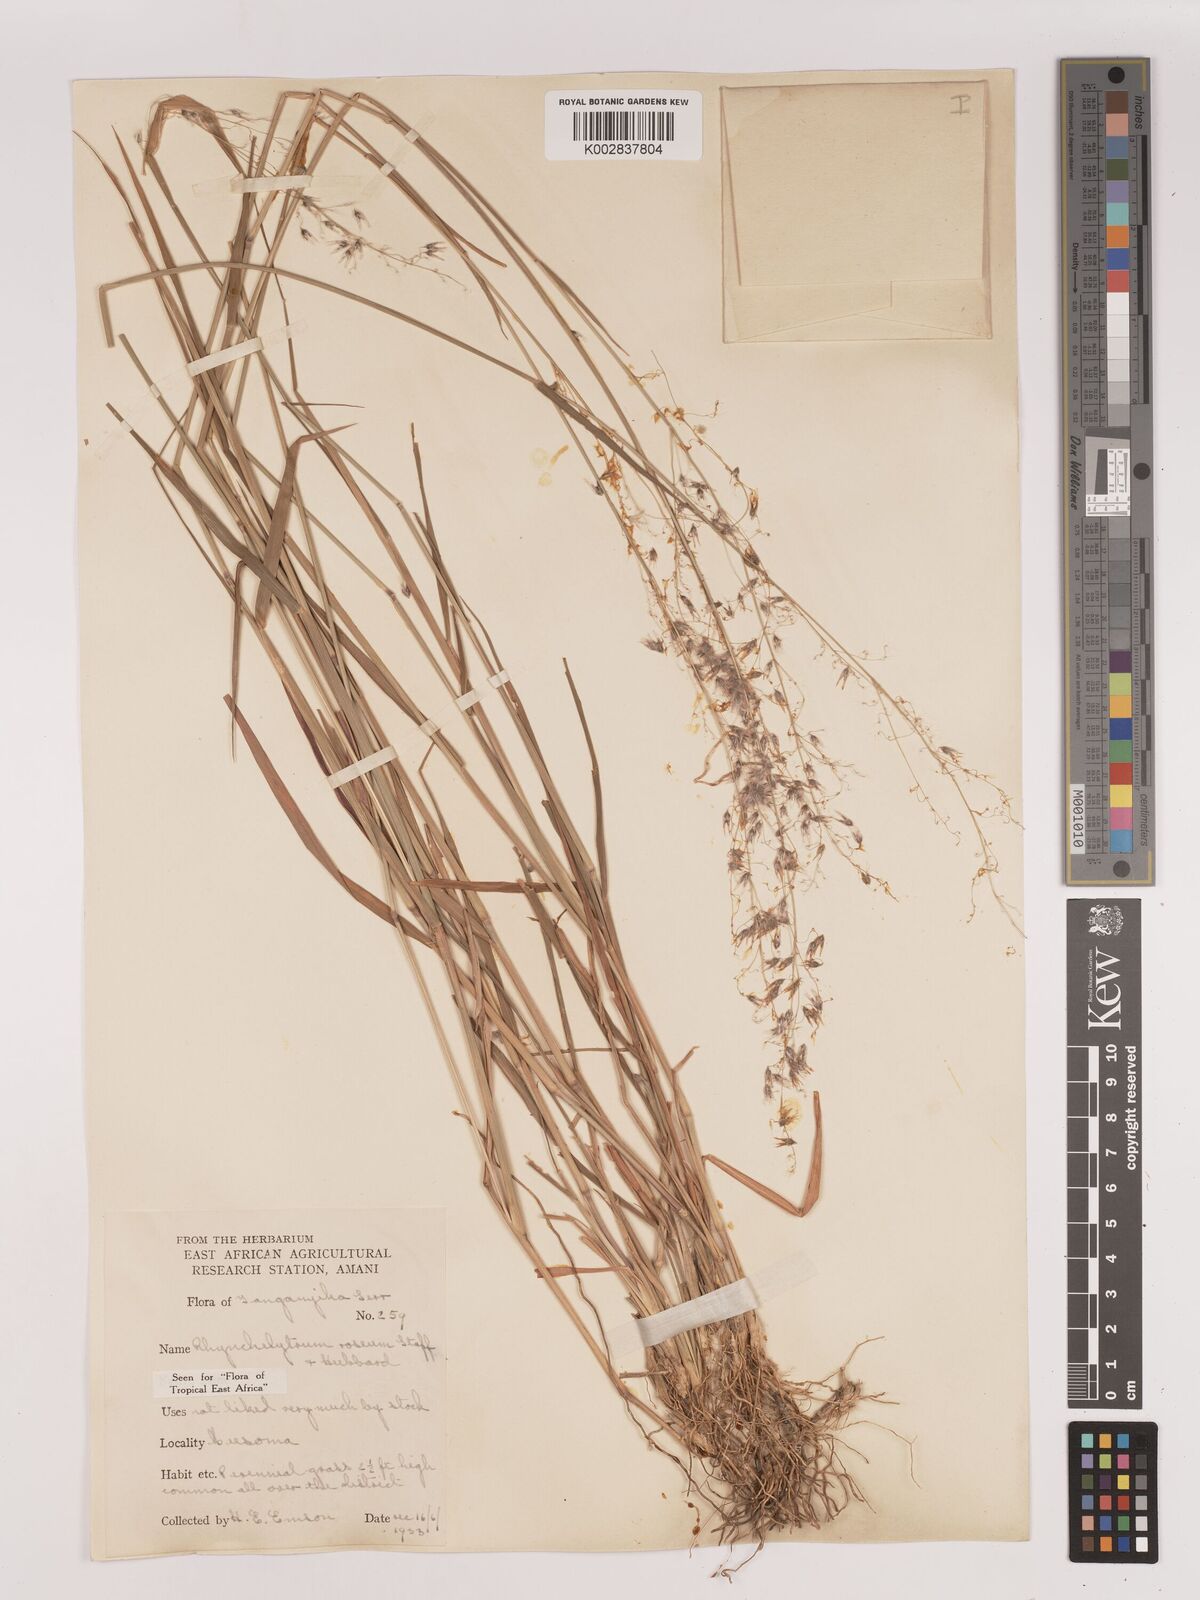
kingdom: Plantae
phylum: Tracheophyta
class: Liliopsida
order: Poales
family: Poaceae
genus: Melinis
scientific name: Melinis repens
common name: Rose natal grass
